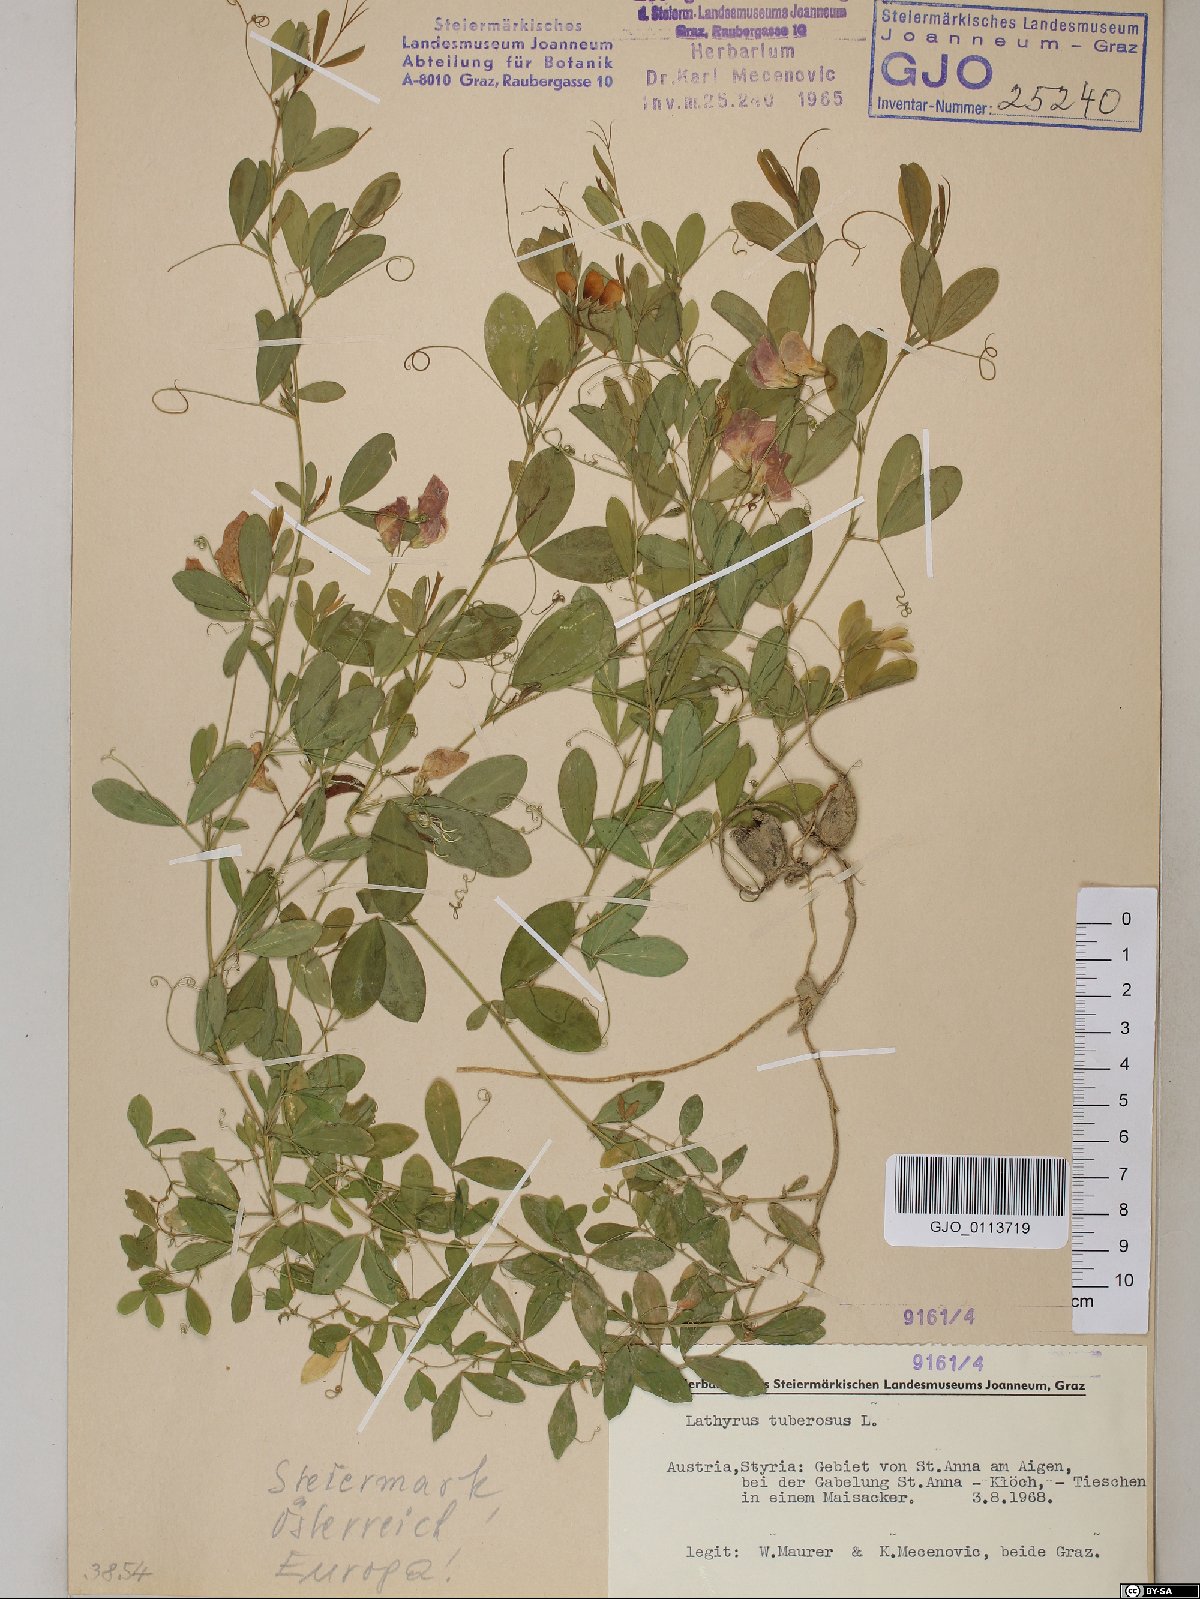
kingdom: Plantae
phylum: Tracheophyta
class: Magnoliopsida
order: Fabales
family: Fabaceae
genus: Lathyrus
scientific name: Lathyrus tuberosus
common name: Tuberous pea
